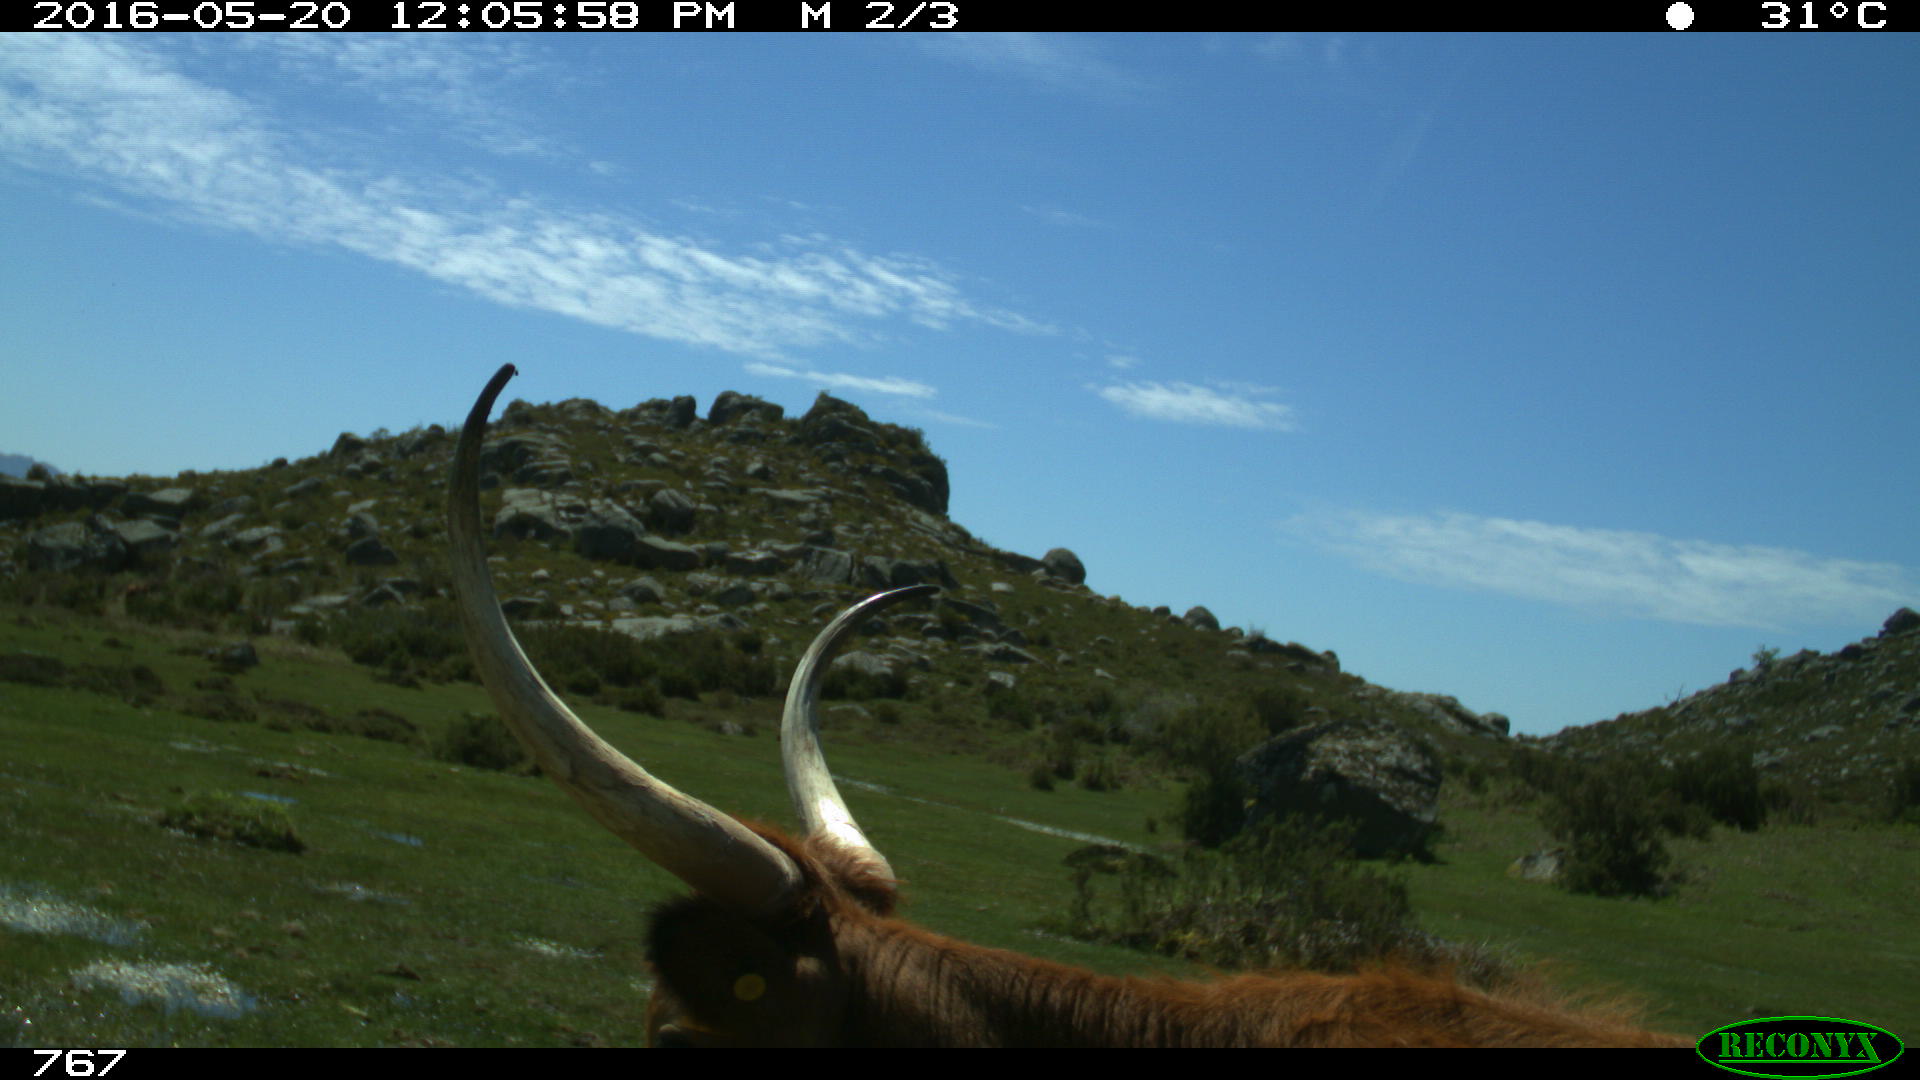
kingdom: Animalia
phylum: Chordata
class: Mammalia
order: Artiodactyla
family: Bovidae
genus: Bos
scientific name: Bos taurus
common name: Domesticated cattle
